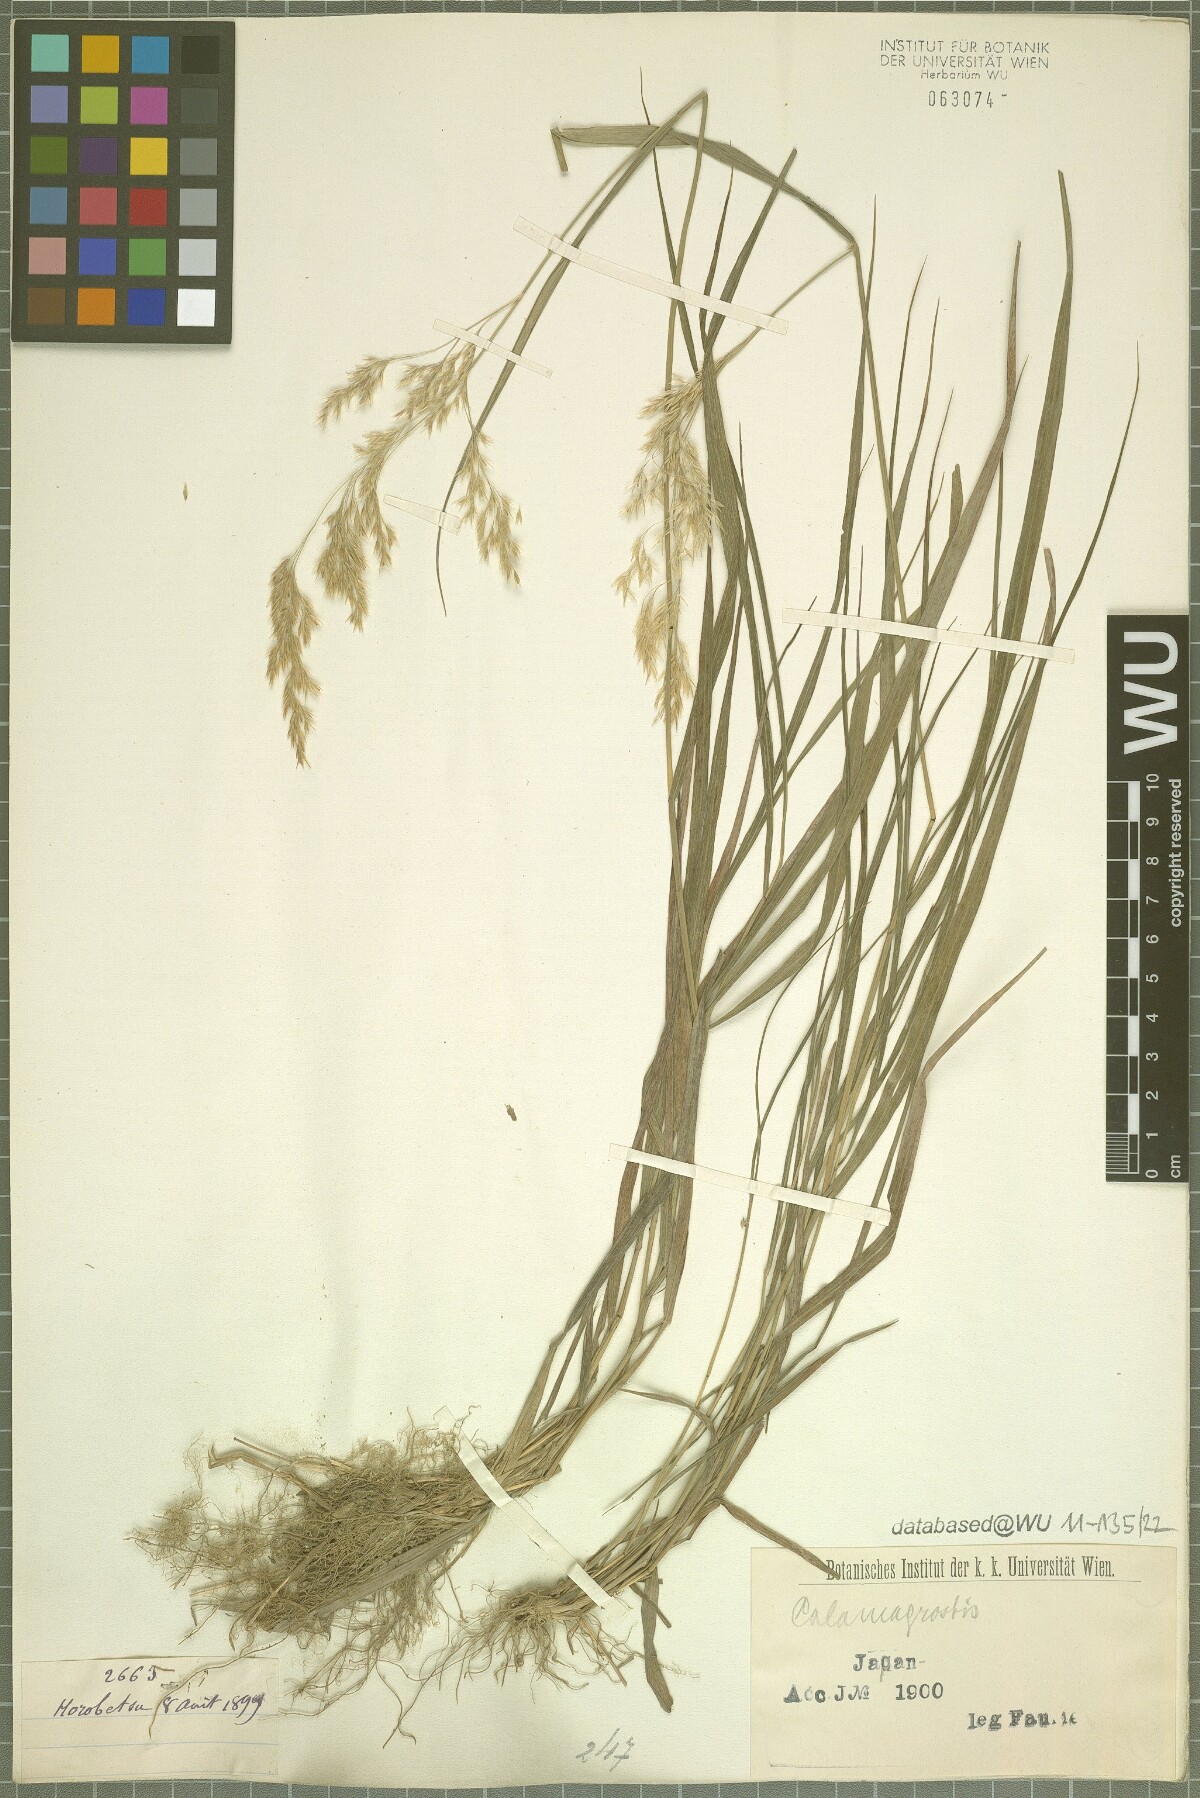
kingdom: Plantae
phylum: Tracheophyta
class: Liliopsida
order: Poales
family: Poaceae
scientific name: Poaceae
